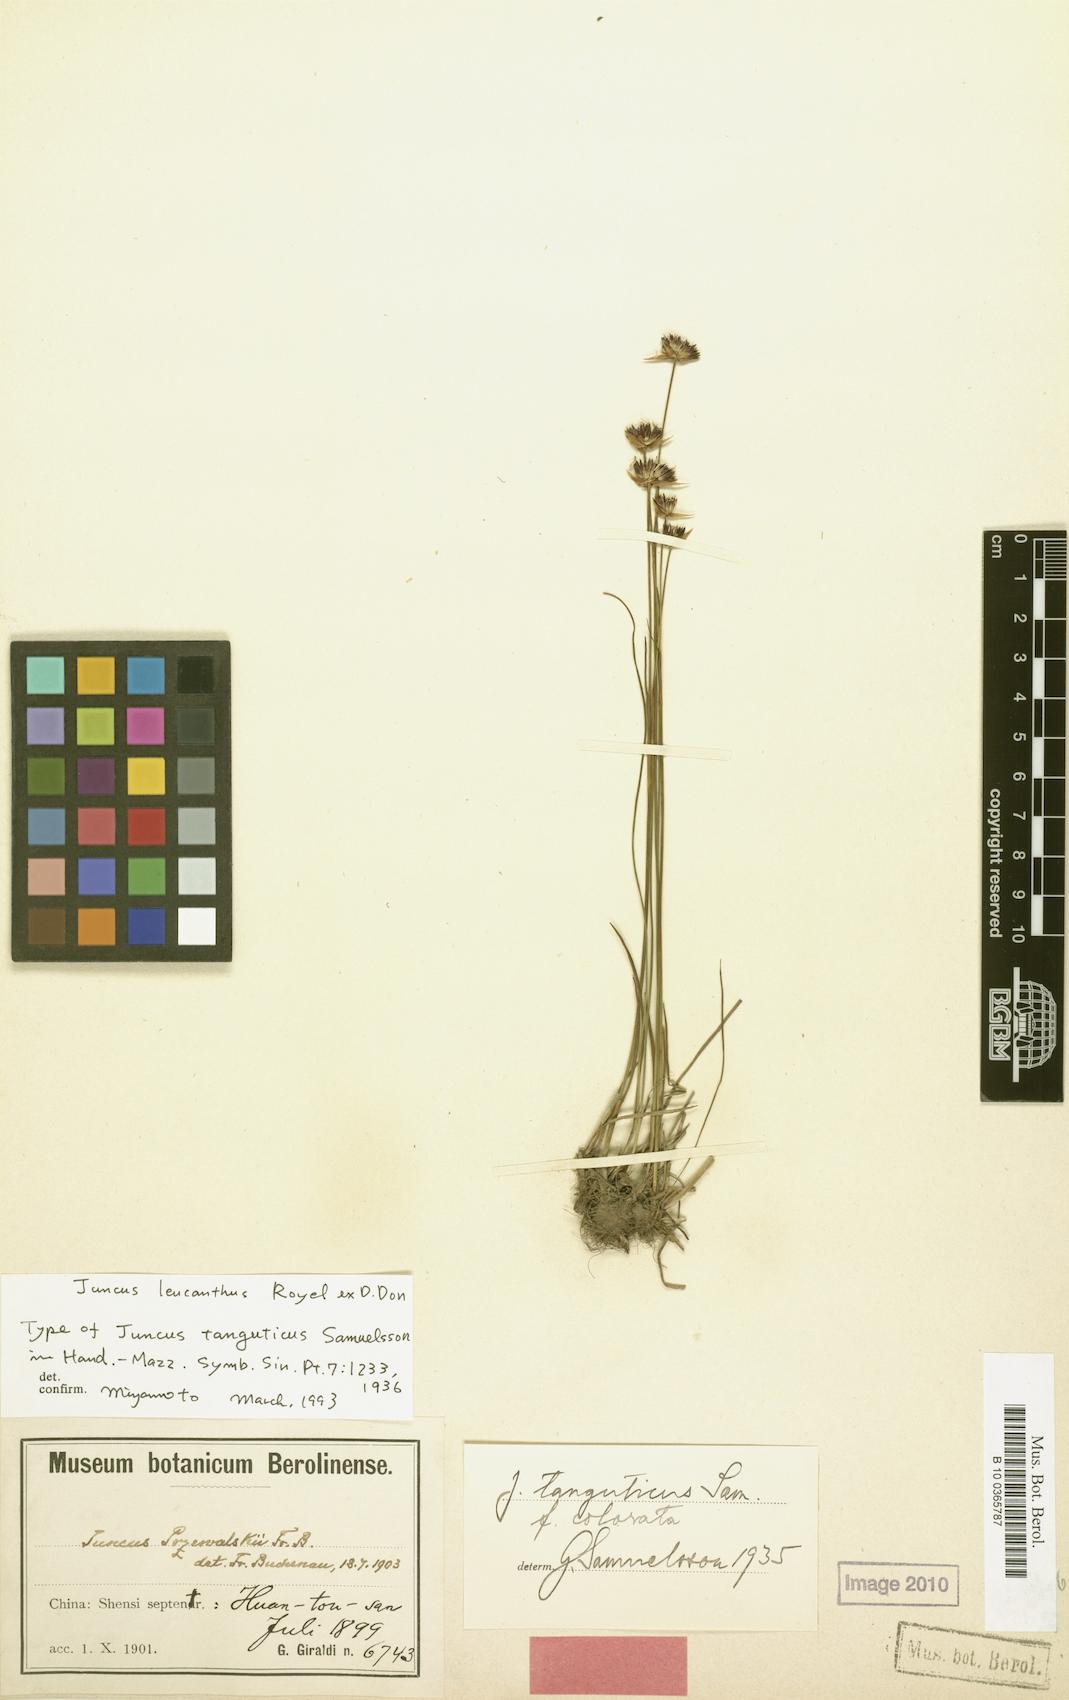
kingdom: Plantae
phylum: Tracheophyta
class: Liliopsida
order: Poales
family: Juncaceae
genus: Juncus
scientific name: Juncus leucanthus
